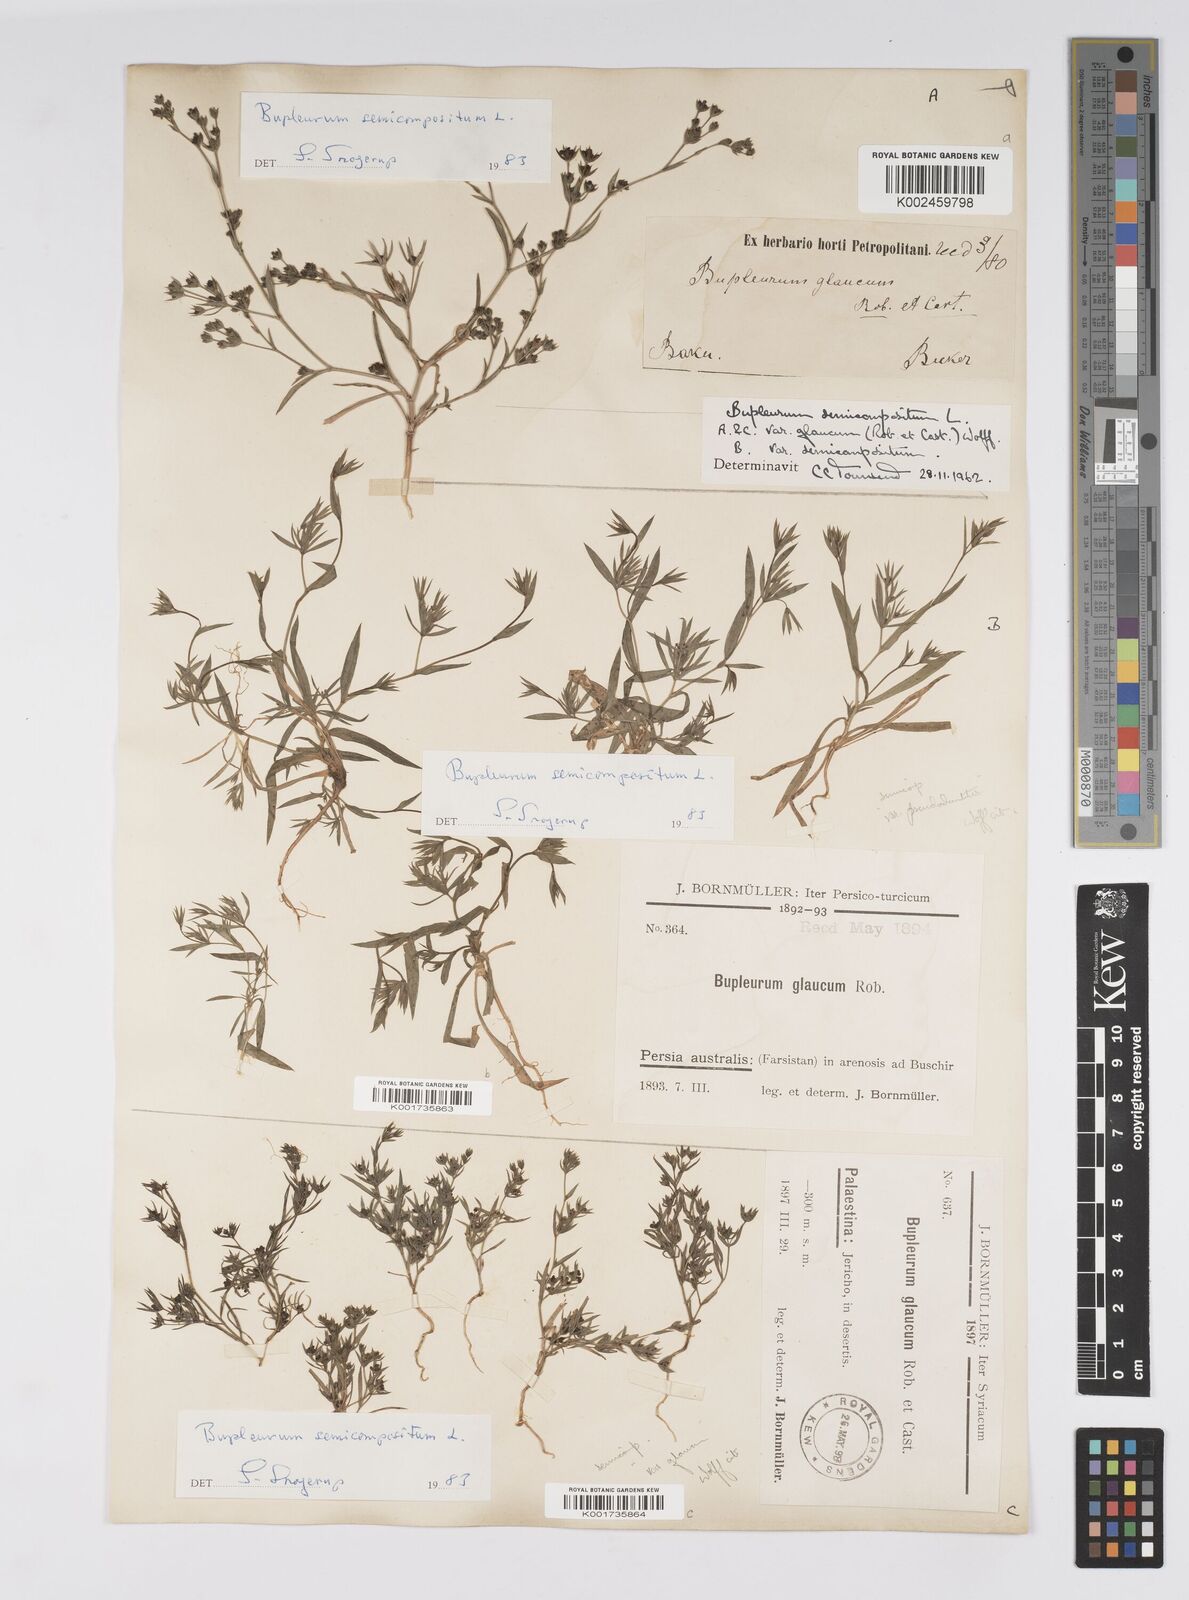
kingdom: Plantae
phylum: Tracheophyta
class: Magnoliopsida
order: Apiales
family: Apiaceae
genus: Bupleurum
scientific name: Bupleurum semicompositum
